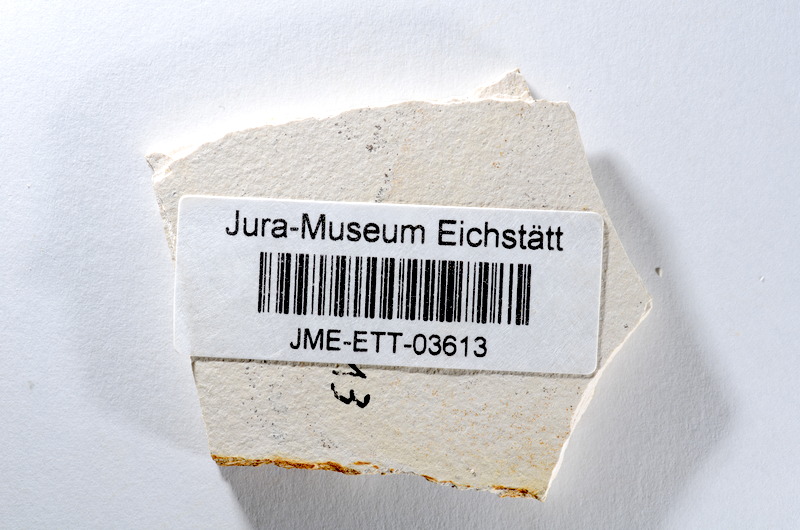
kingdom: Animalia
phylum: Chordata
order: Salmoniformes
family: Orthogonikleithridae
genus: Orthogonikleithrus
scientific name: Orthogonikleithrus hoelli
